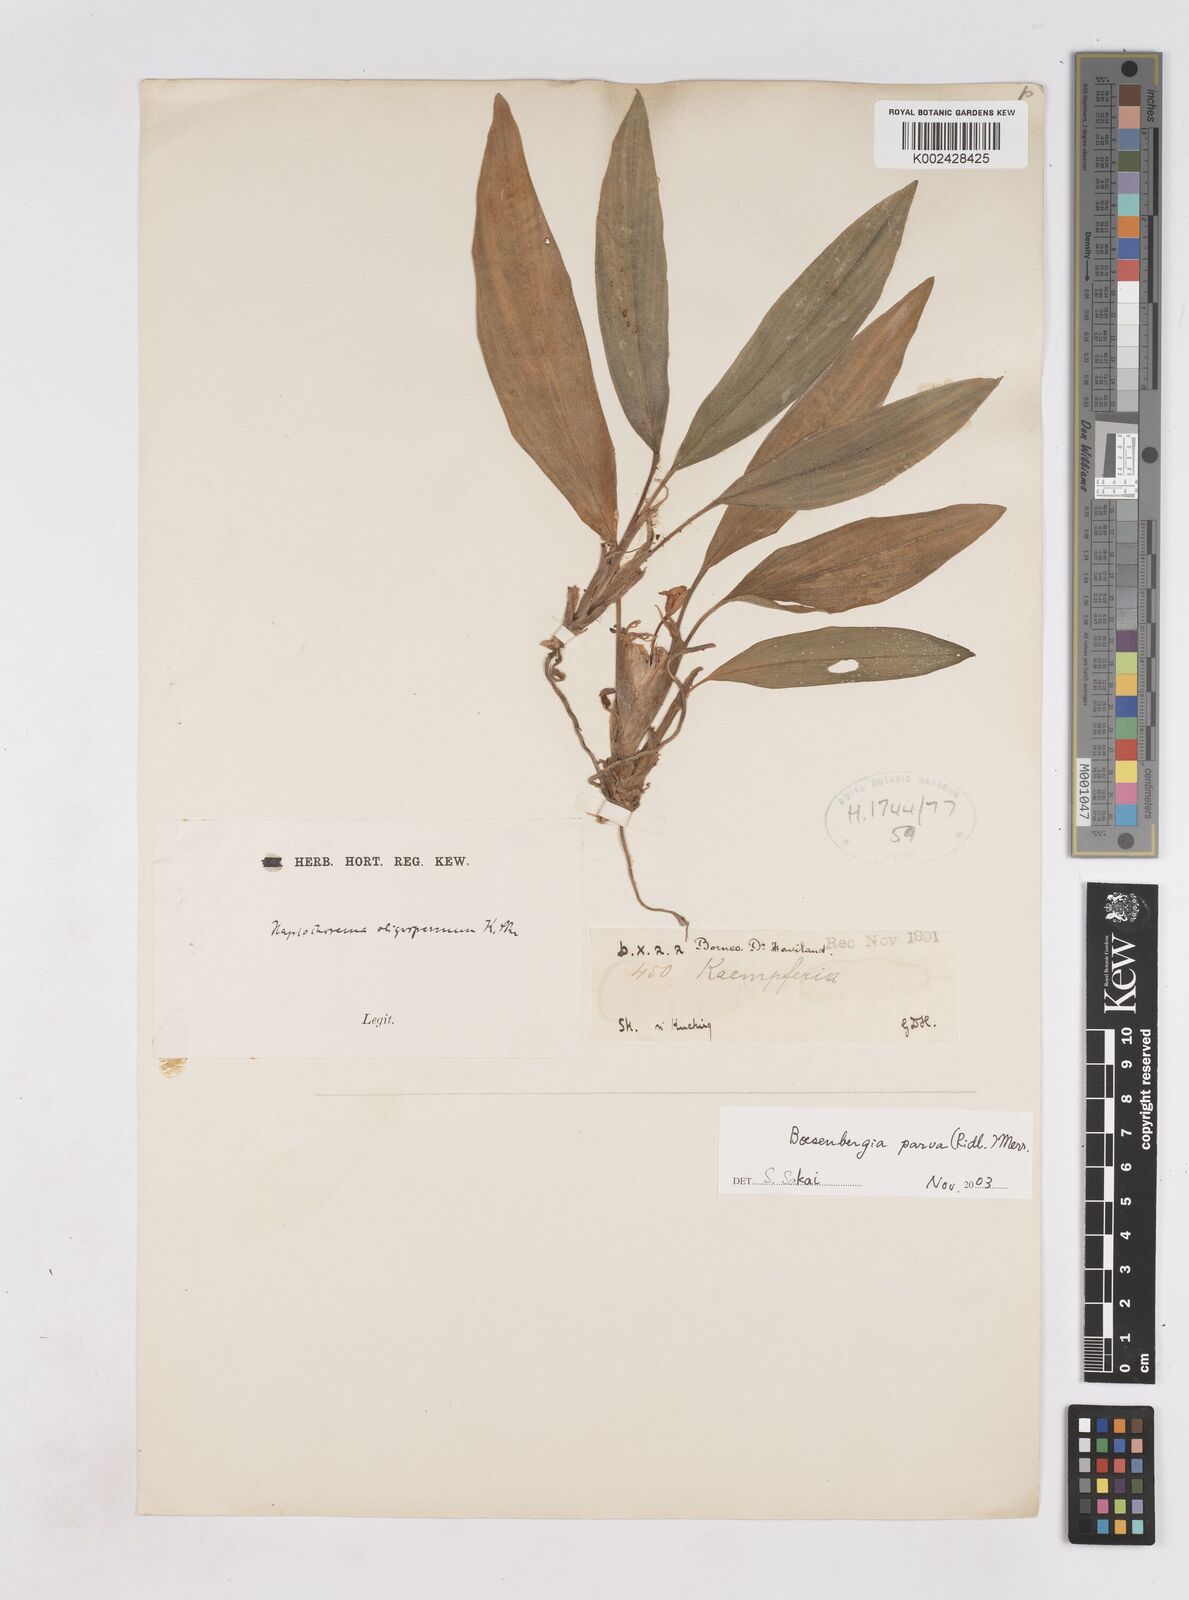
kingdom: Plantae
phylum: Tracheophyta
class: Liliopsida
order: Zingiberales
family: Zingiberaceae
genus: Boesenbergia
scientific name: Boesenbergia parva
